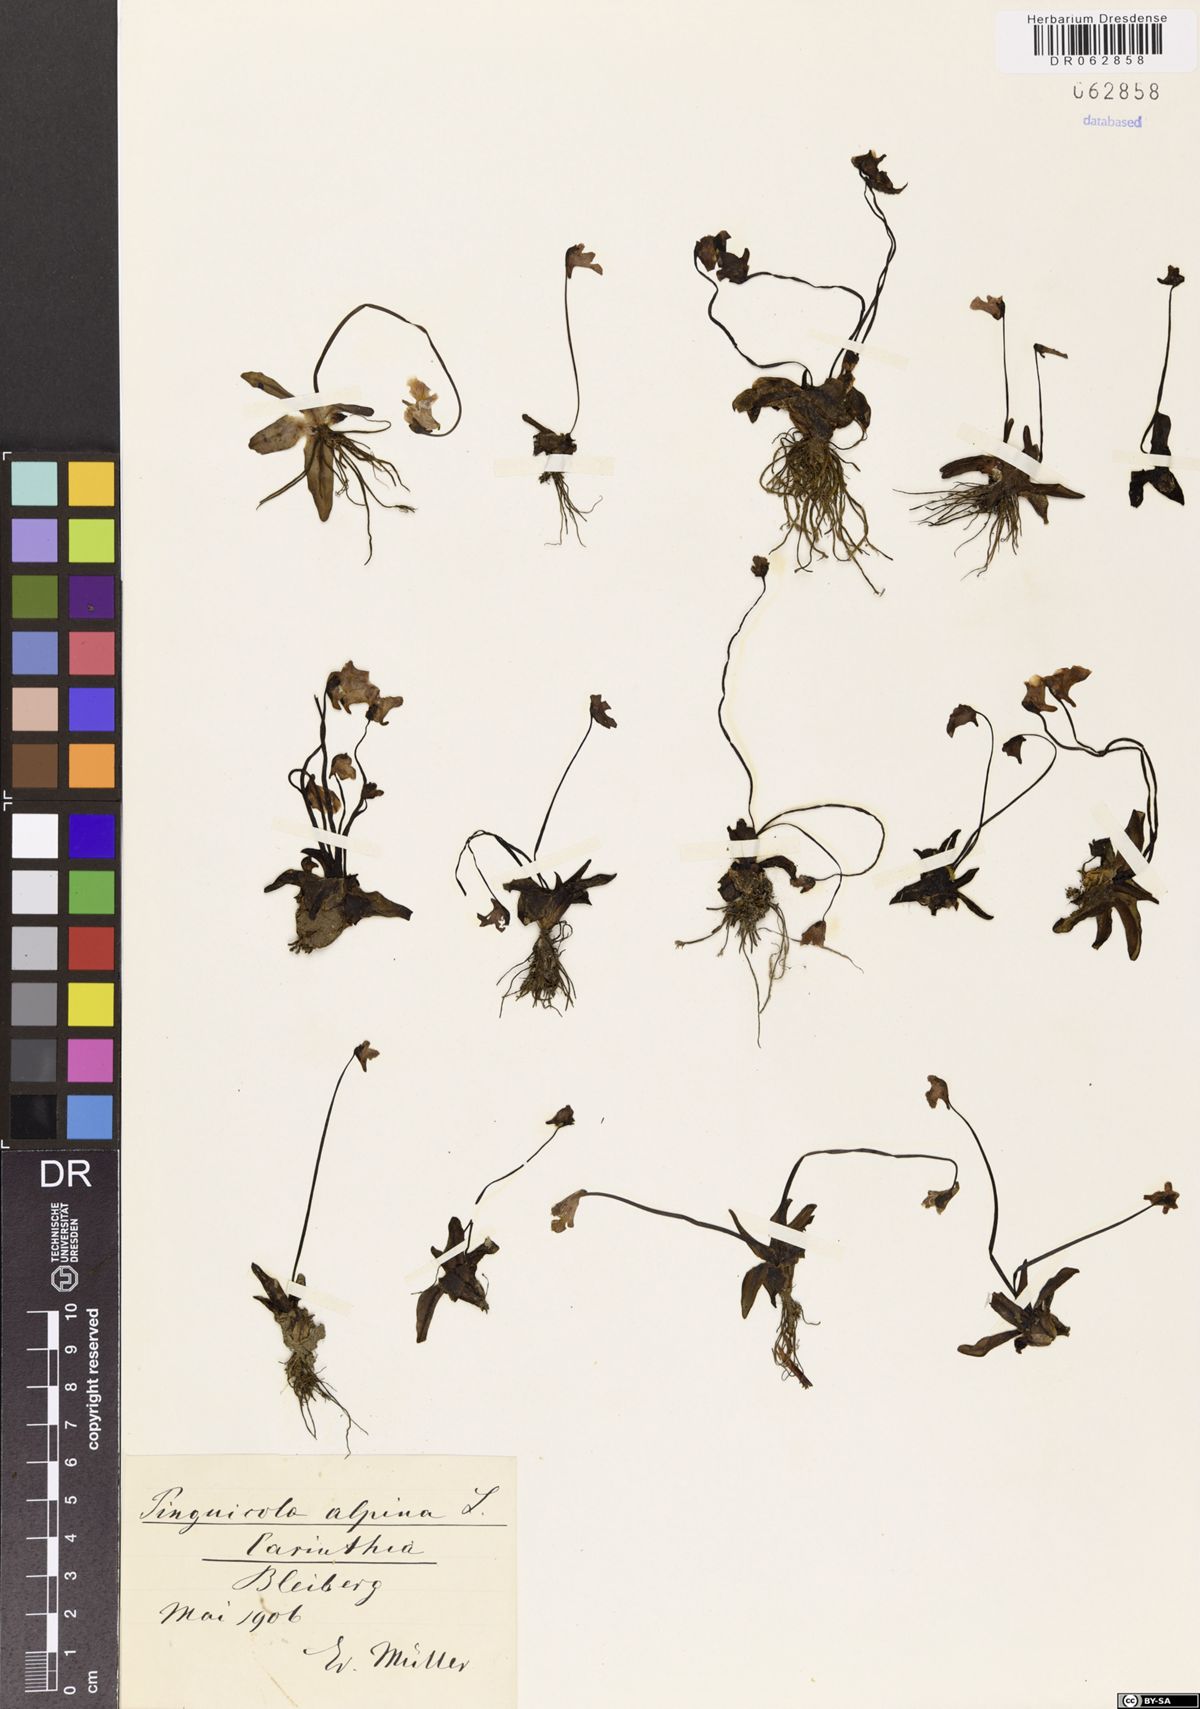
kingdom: Plantae
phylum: Tracheophyta
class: Magnoliopsida
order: Lamiales
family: Lentibulariaceae
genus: Pinguicula
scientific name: Pinguicula alpina
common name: Alpine butterwort
